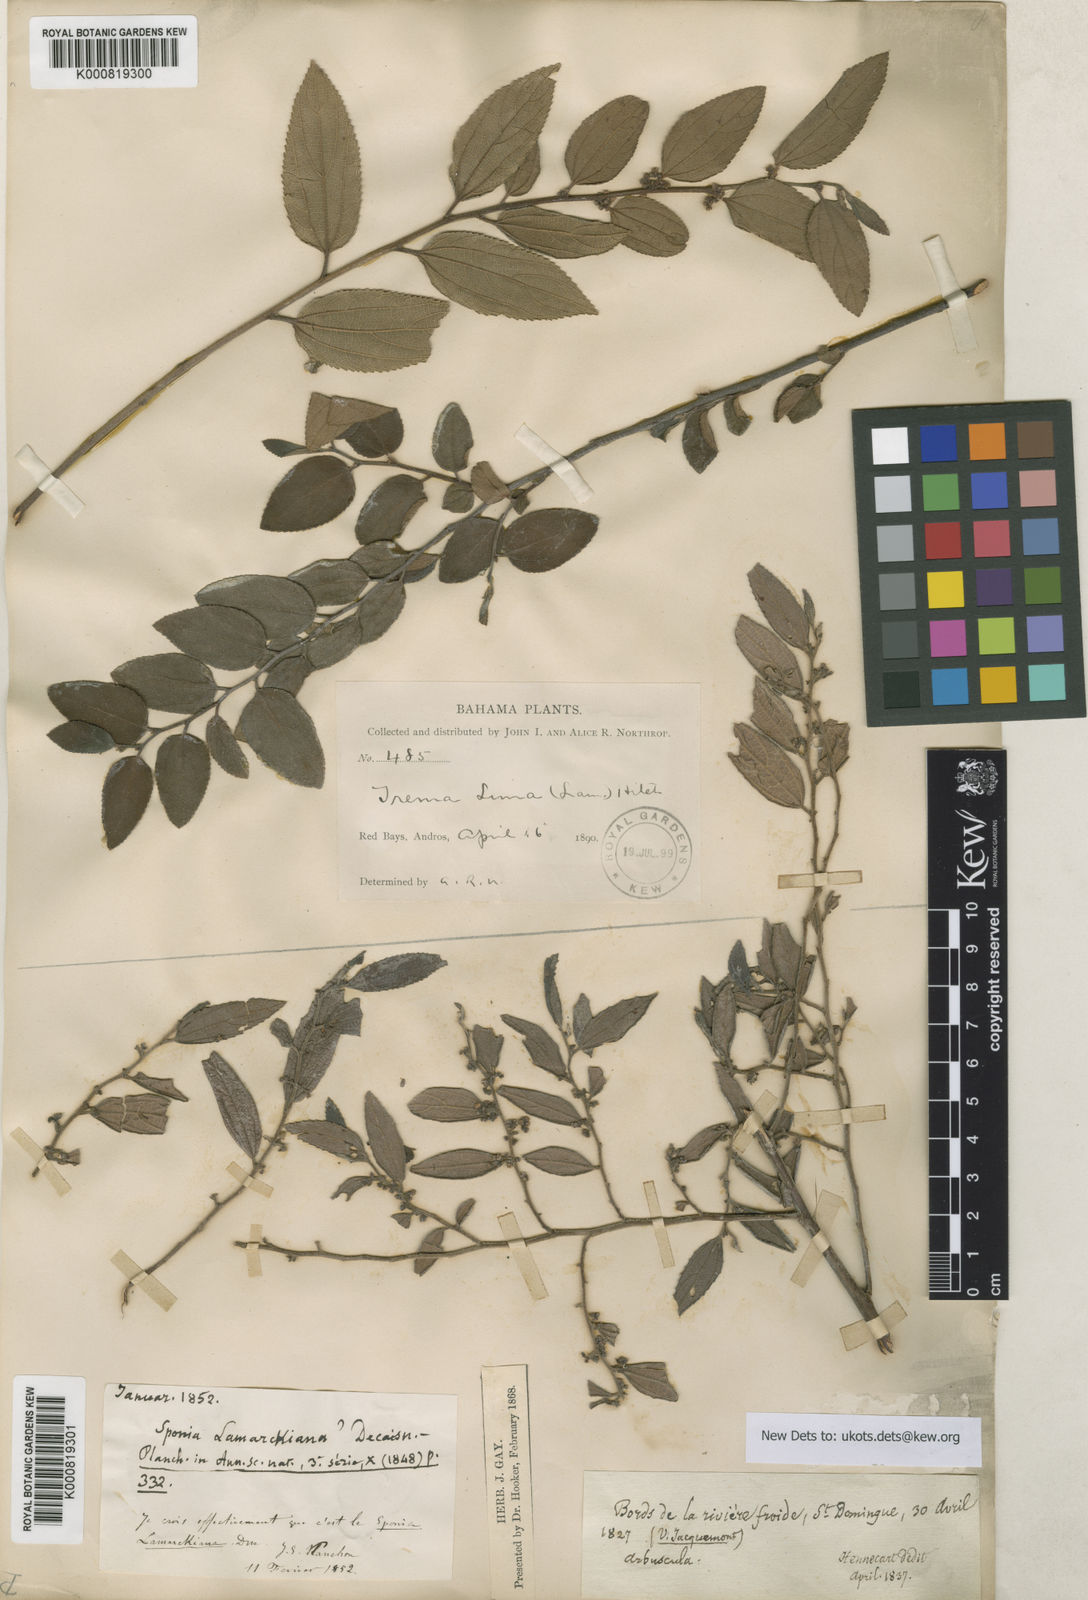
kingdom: Plantae
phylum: Tracheophyta
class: Magnoliopsida
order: Rosales
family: Cannabaceae
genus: Trema
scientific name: Trema lamarckianum
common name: Lamarck's trema
